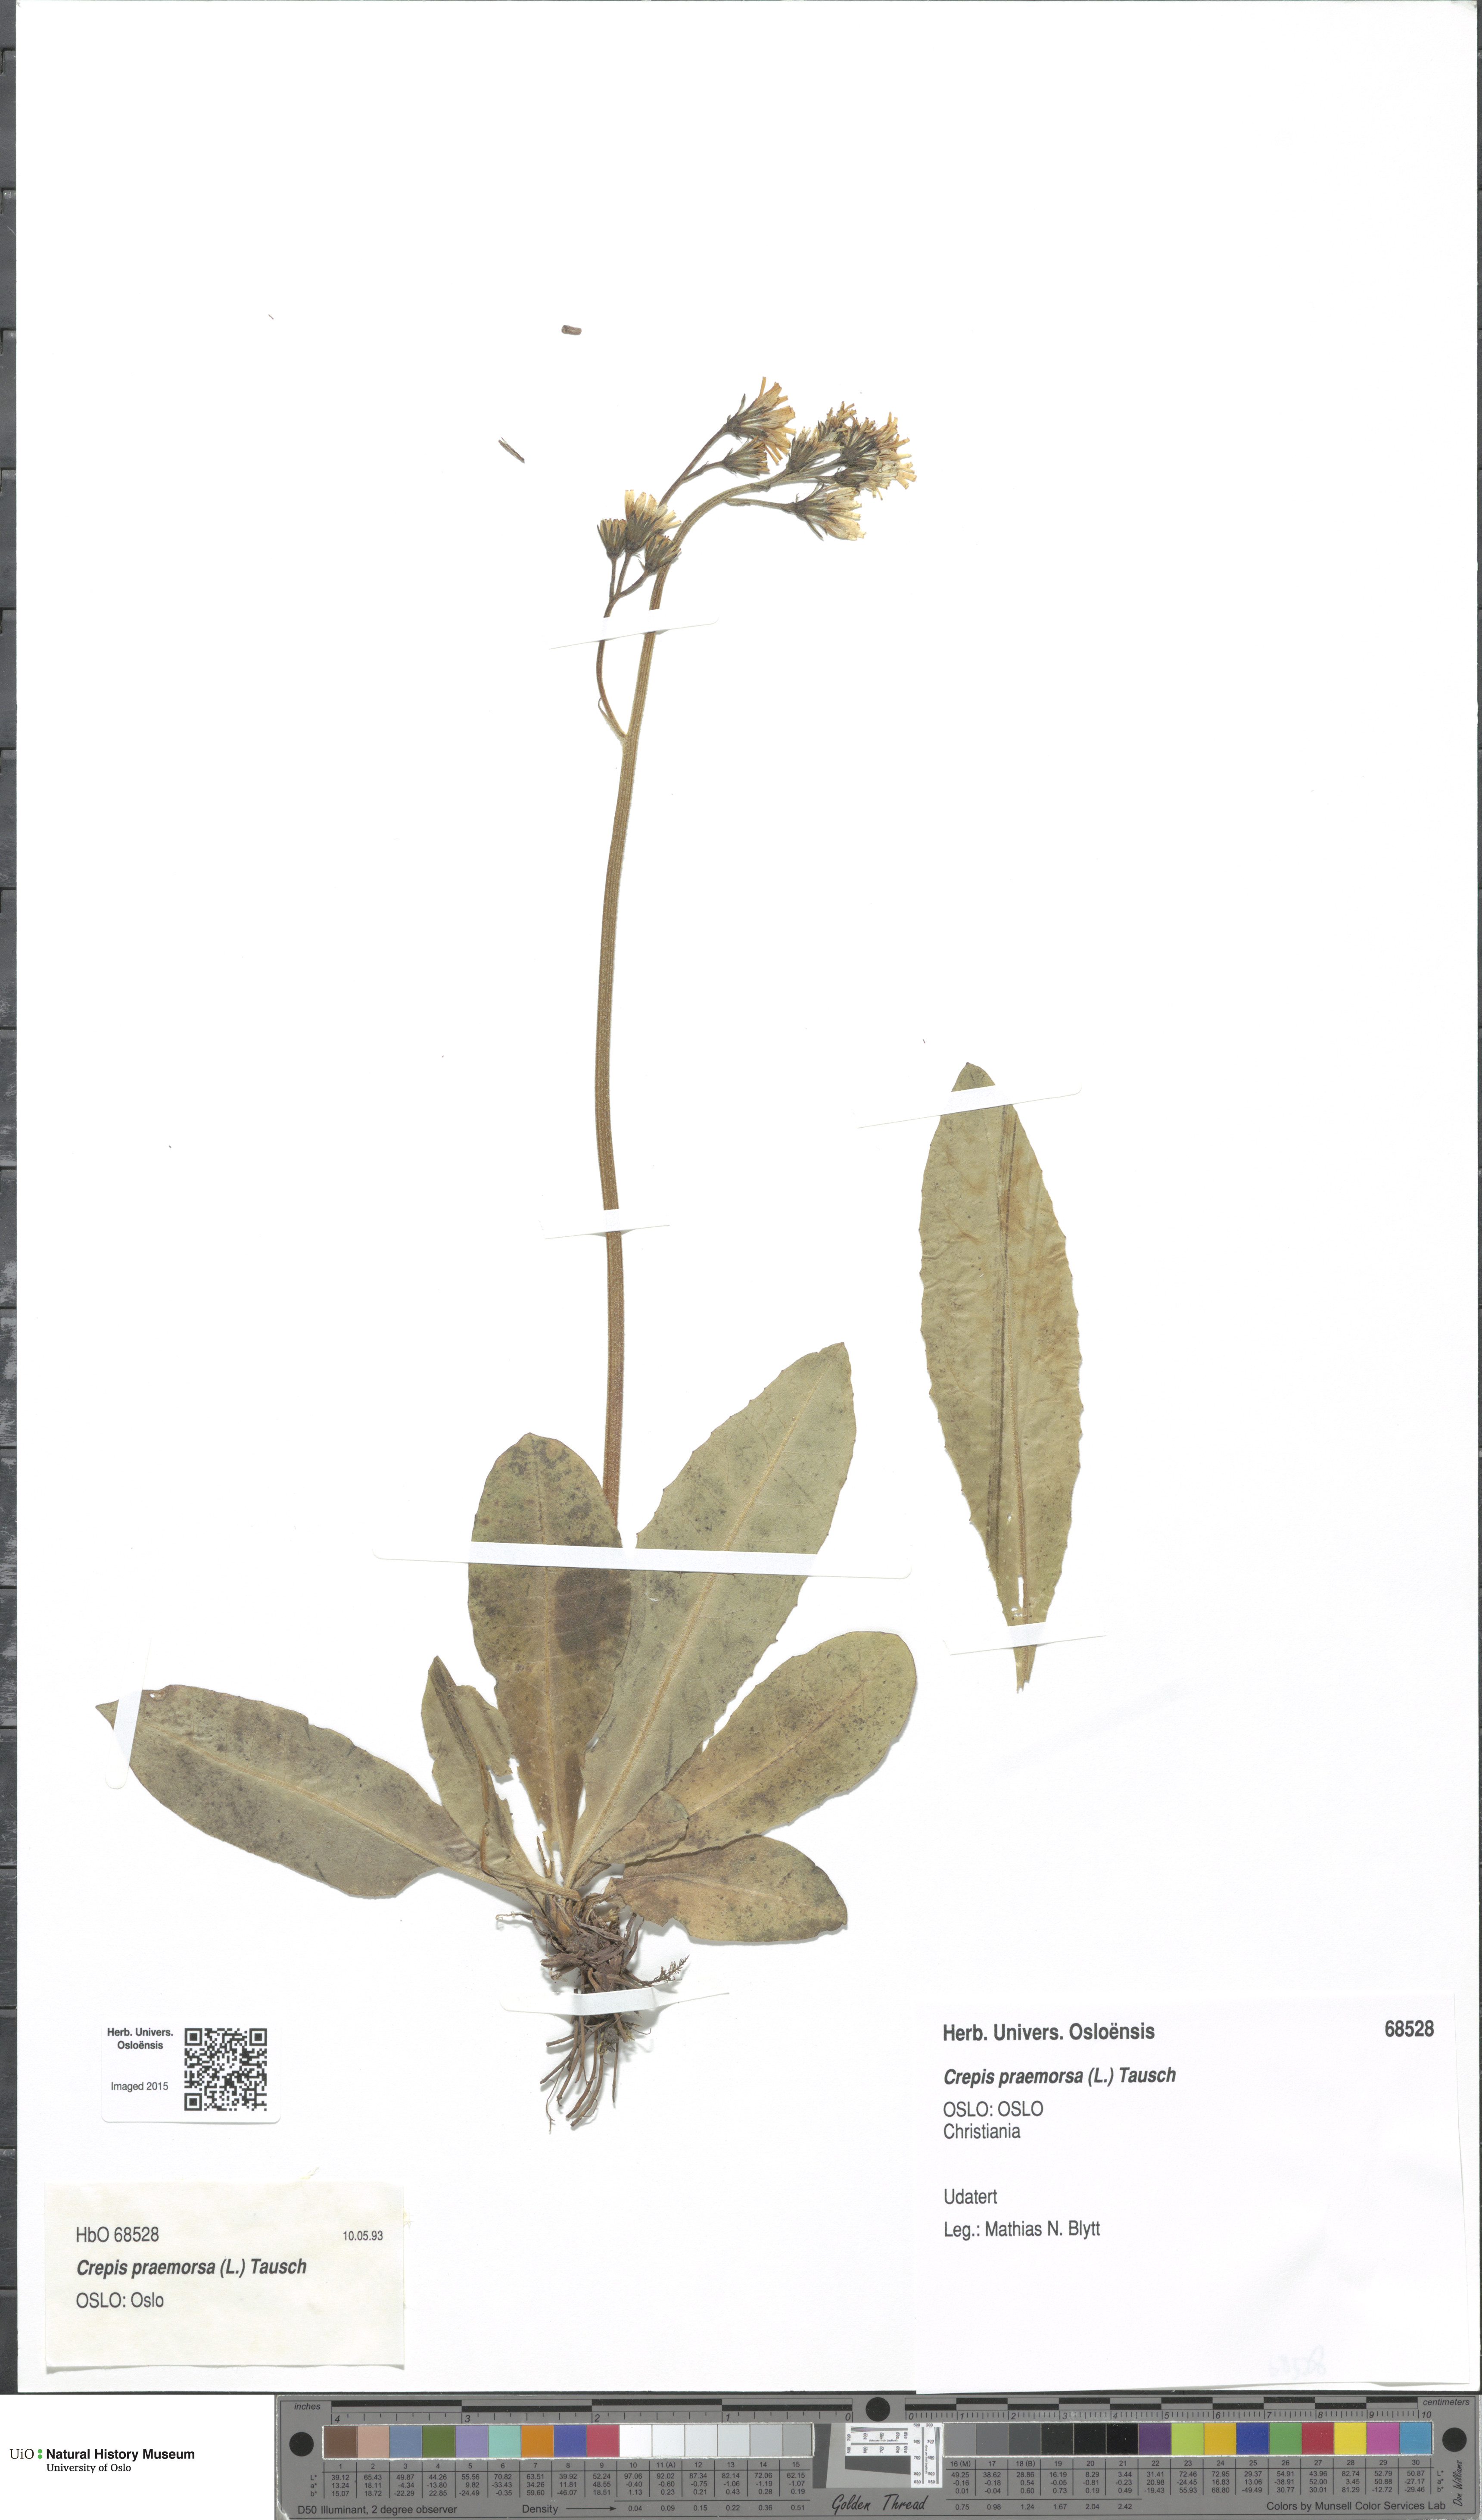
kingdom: Plantae
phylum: Tracheophyta
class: Magnoliopsida
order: Asterales
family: Asteraceae
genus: Crepis
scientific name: Crepis praemorsa
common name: Leafless hawk's-beard
